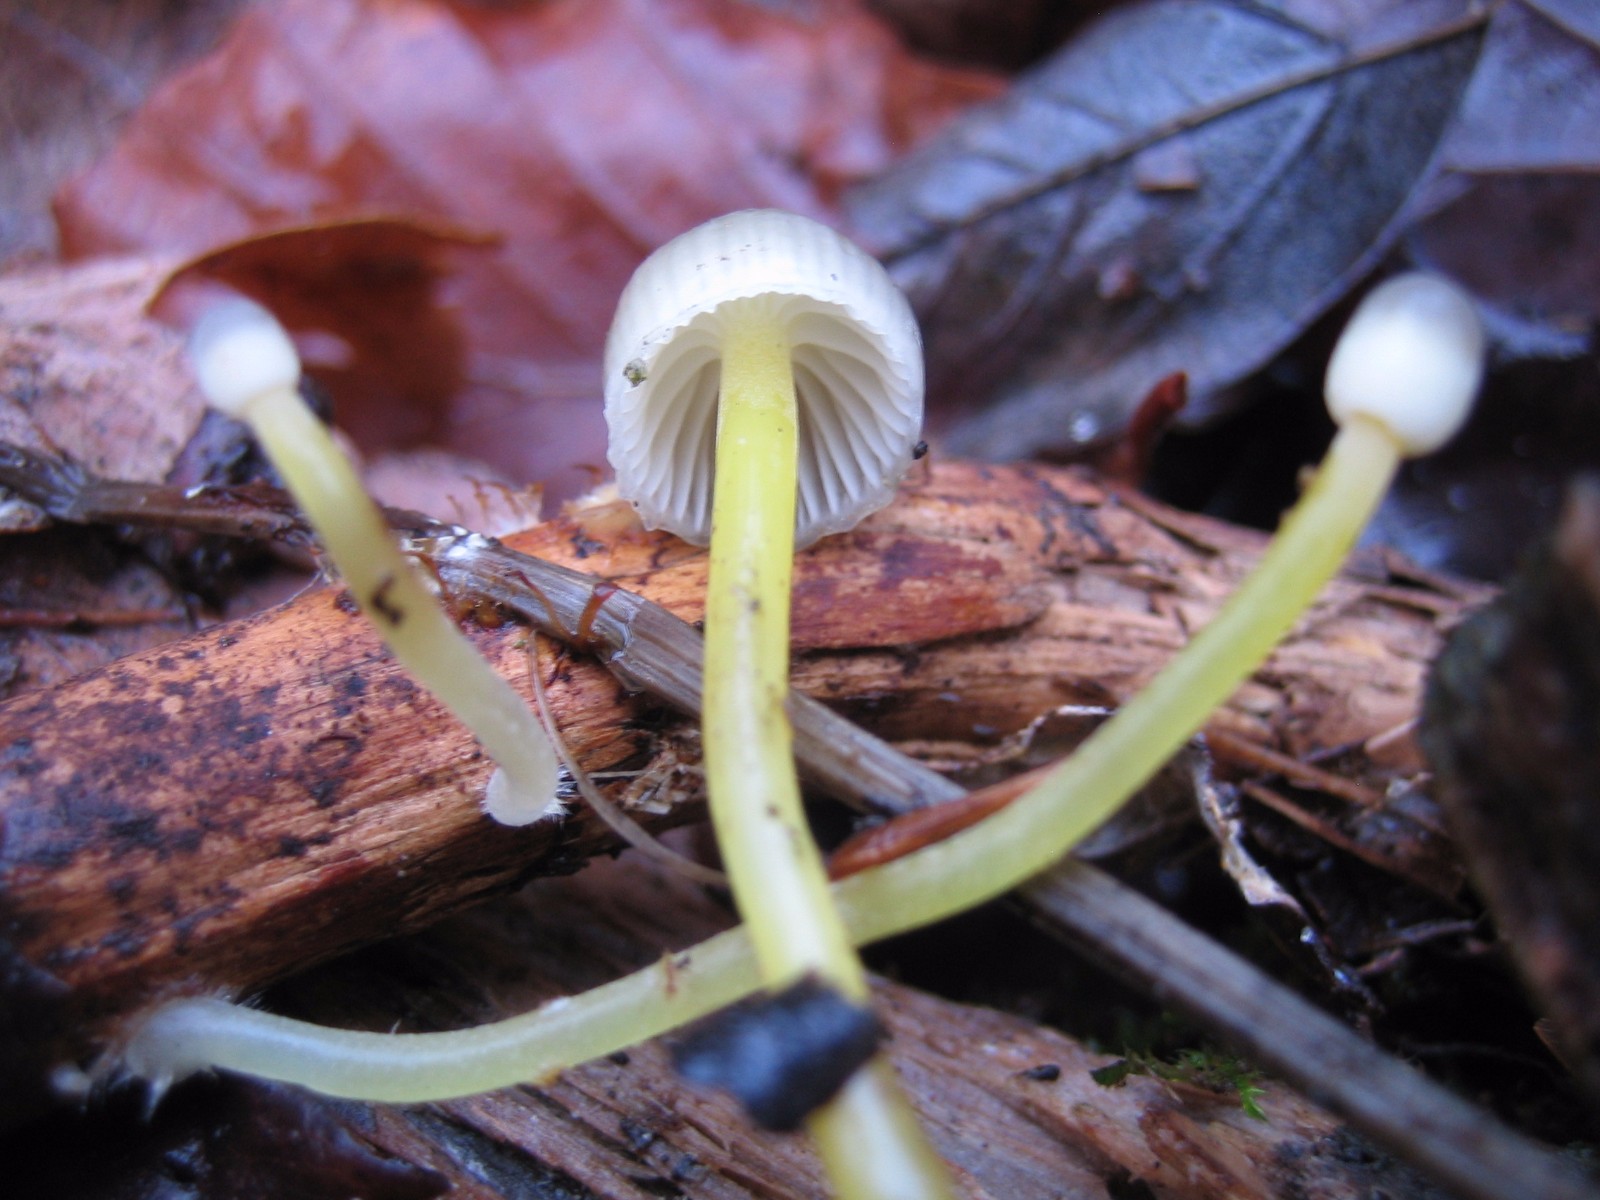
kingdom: Fungi
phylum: Basidiomycota
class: Agaricomycetes
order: Agaricales
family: Mycenaceae
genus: Mycena
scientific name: Mycena epipterygia
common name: gulstokket huesvamp
